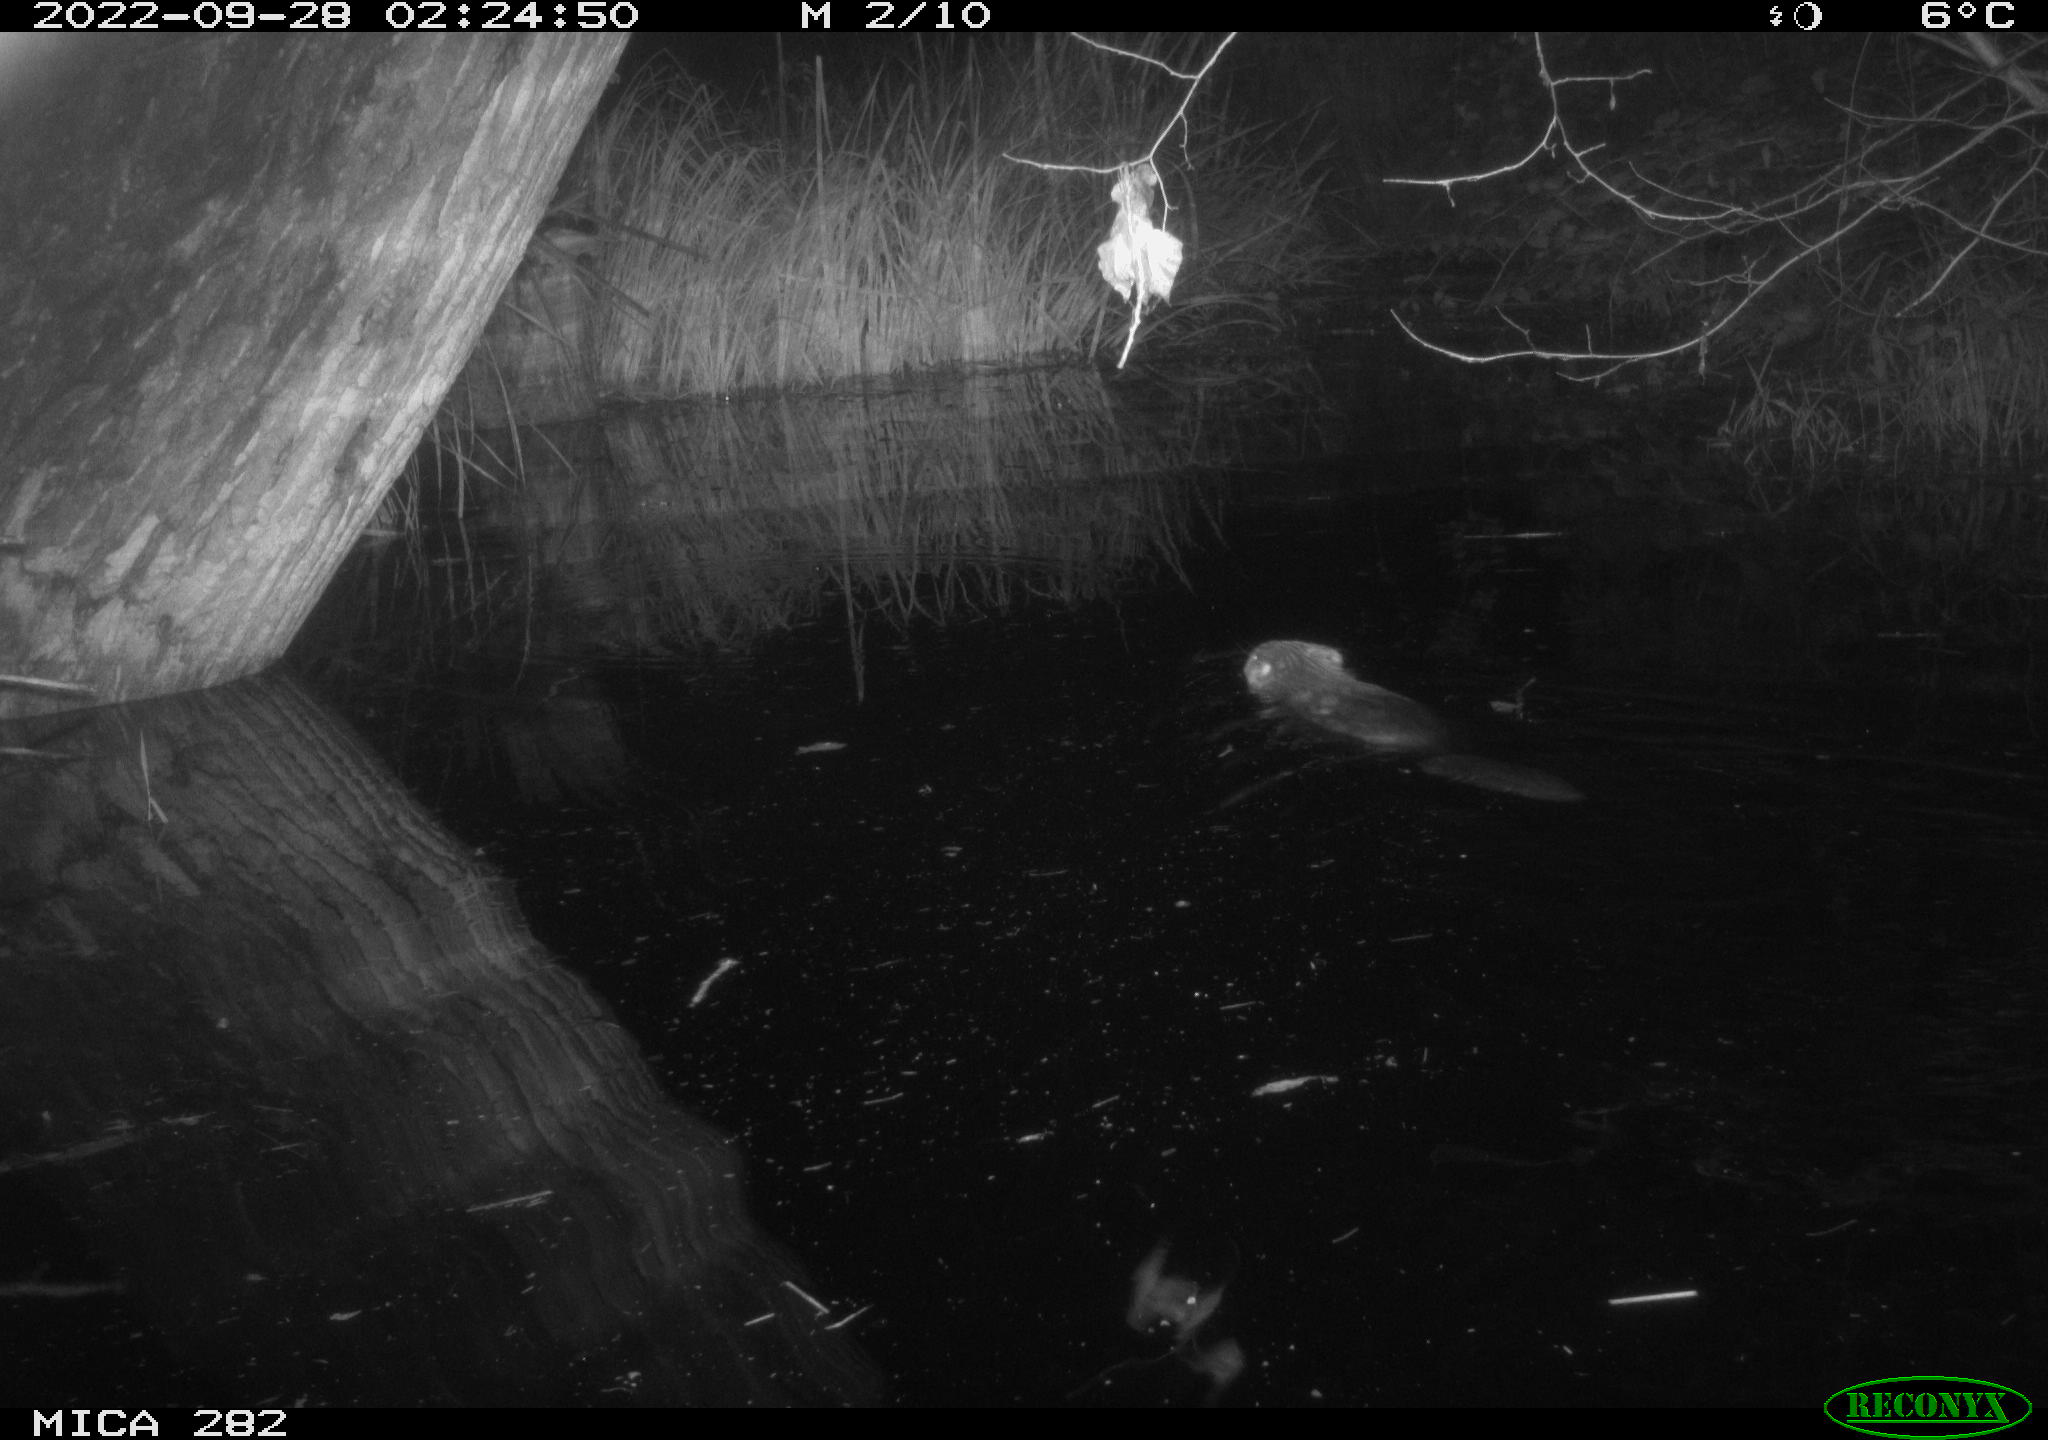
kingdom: Animalia
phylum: Chordata
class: Mammalia
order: Rodentia
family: Castoridae
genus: Castor
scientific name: Castor fiber
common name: Eurasian beaver
